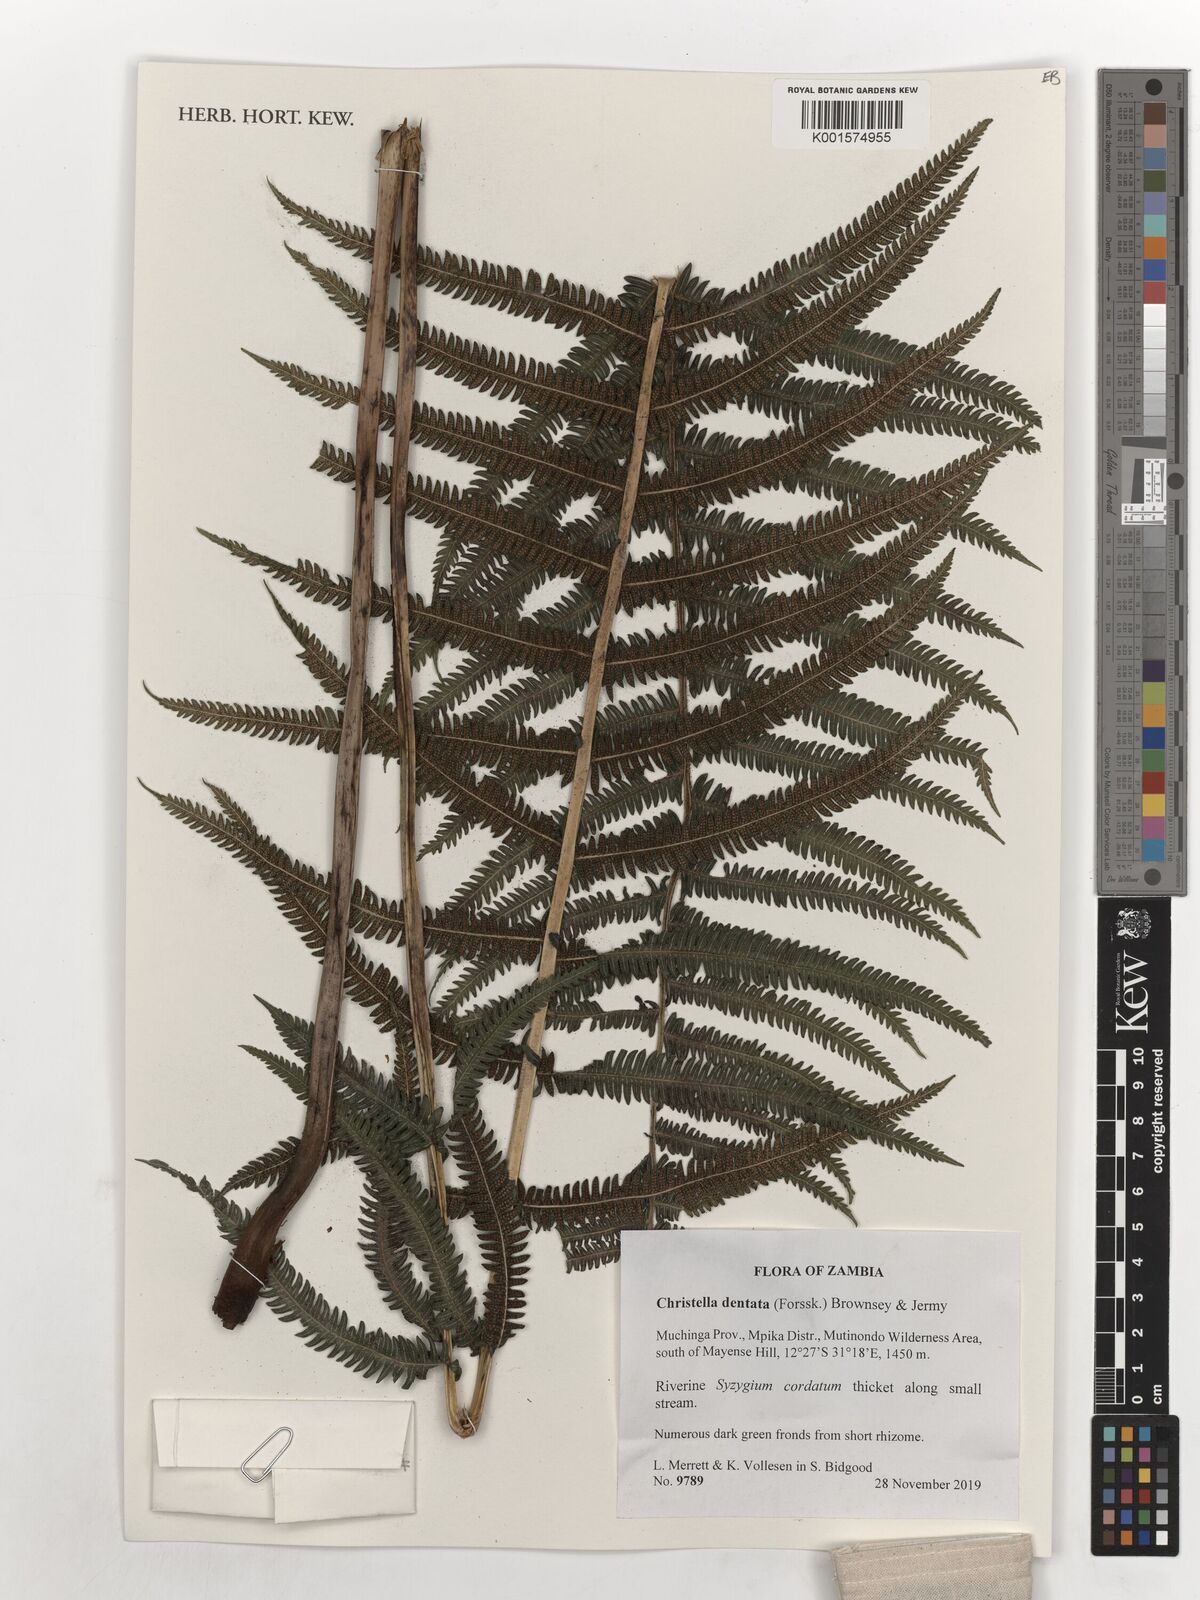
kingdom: Plantae
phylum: Tracheophyta
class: Polypodiopsida
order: Polypodiales
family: Thelypteridaceae
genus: Christella
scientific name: Christella dentata
